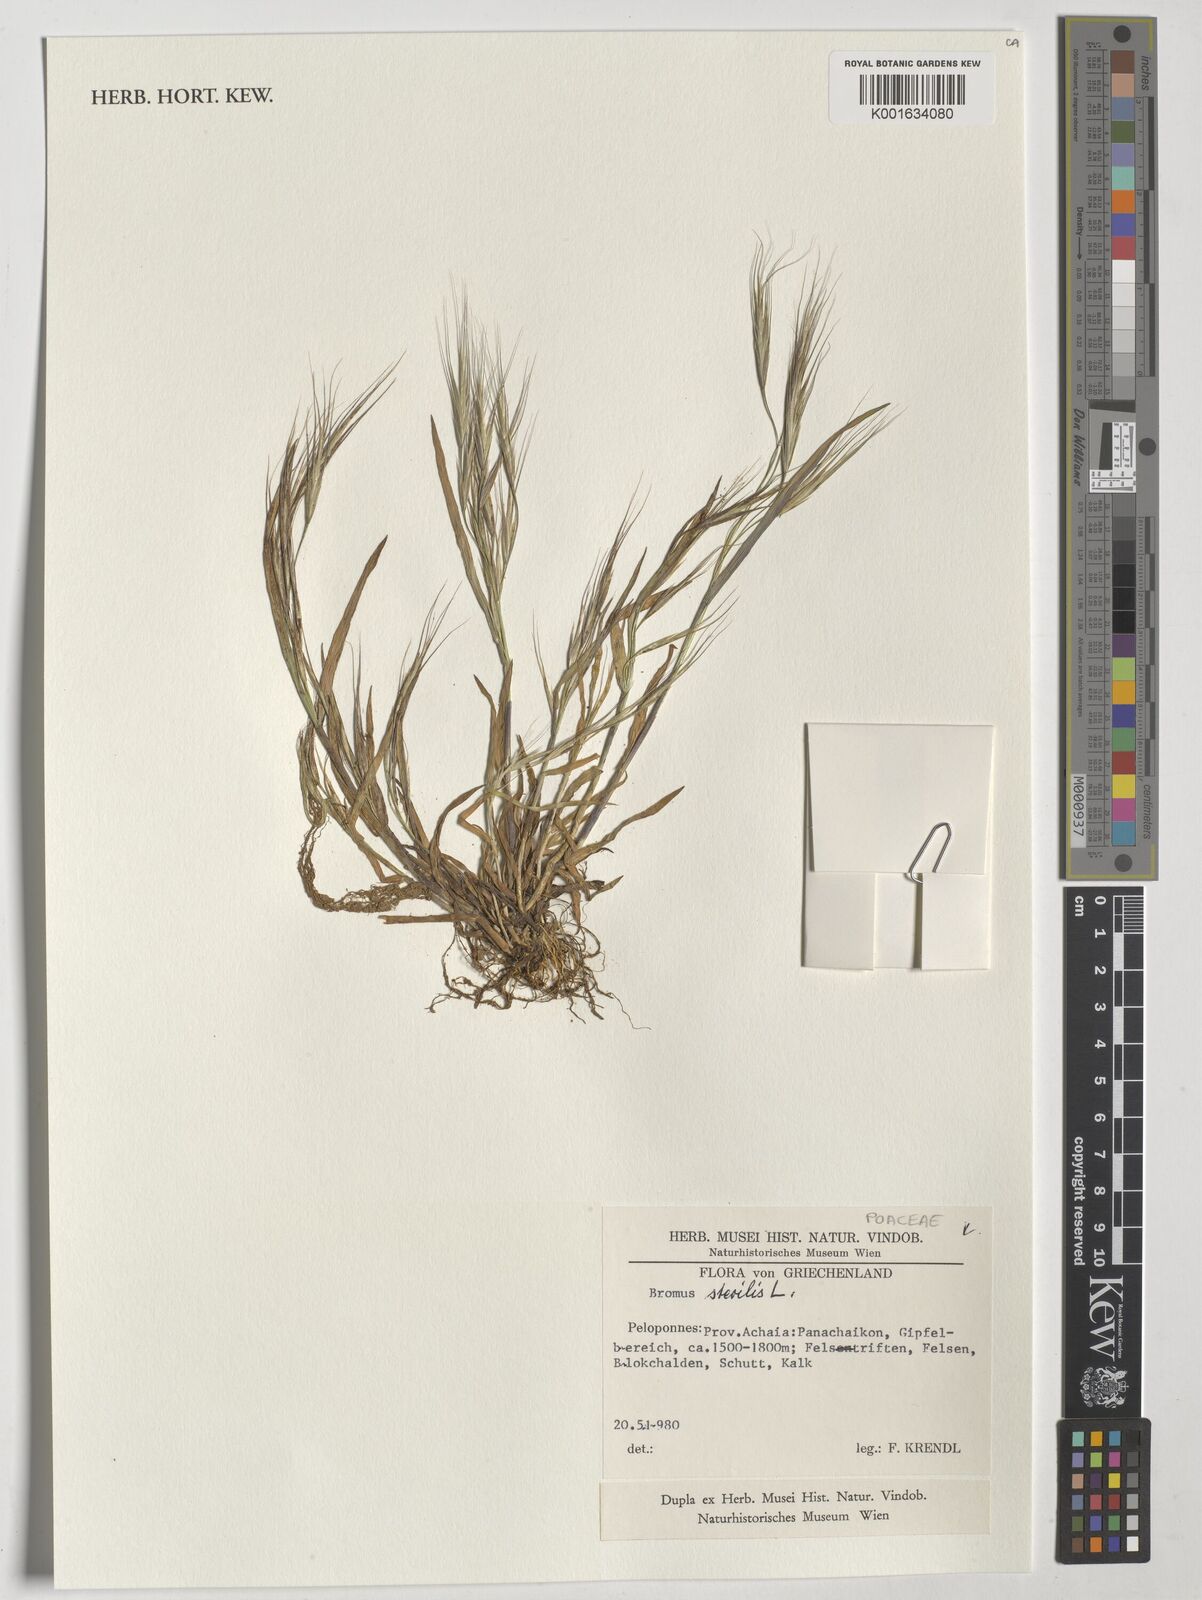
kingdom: Plantae
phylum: Tracheophyta
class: Liliopsida
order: Poales
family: Poaceae
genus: Bromus
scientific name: Bromus sterilis
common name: Poverty brome
